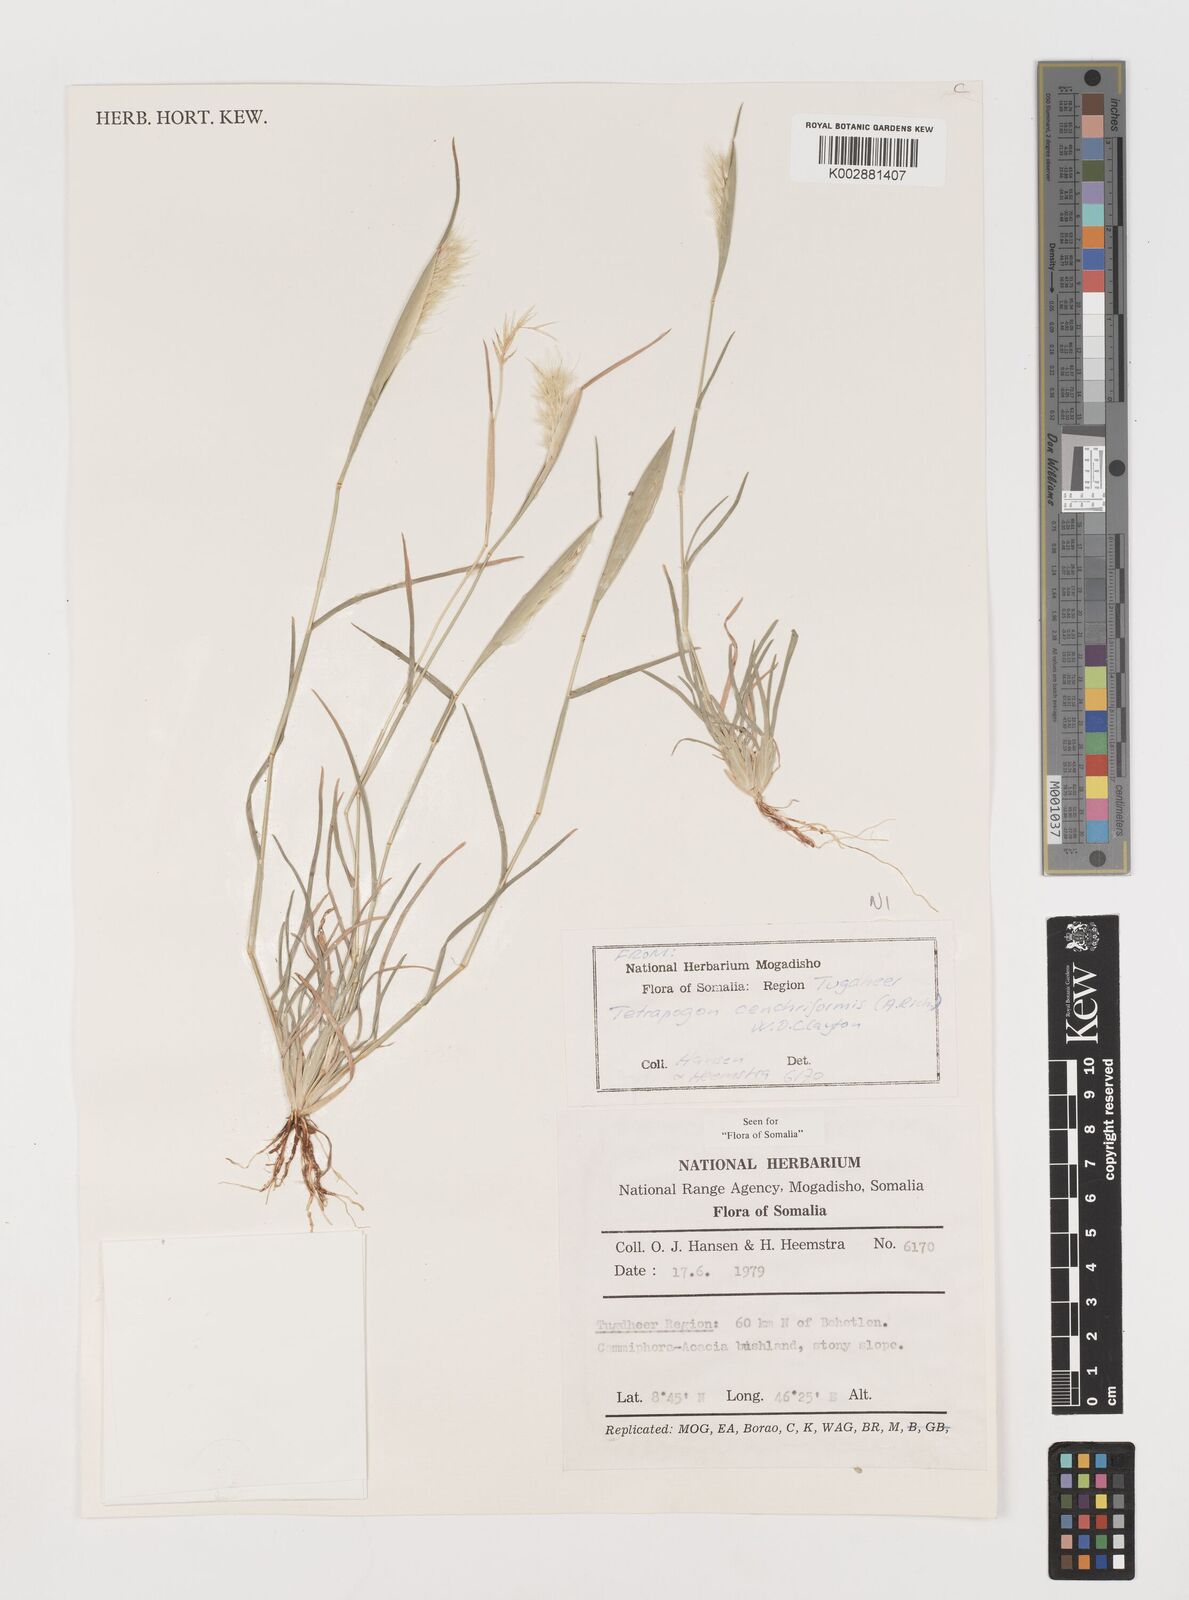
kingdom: Plantae
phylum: Tracheophyta
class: Liliopsida
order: Poales
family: Poaceae
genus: Tetrapogon
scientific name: Tetrapogon cenchriformis
